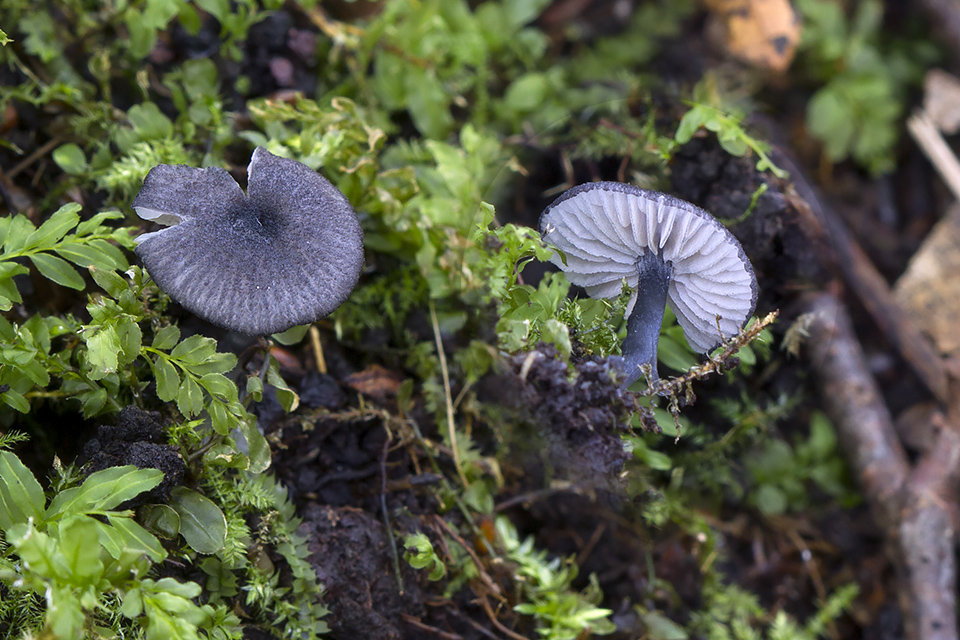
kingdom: Fungi
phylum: Basidiomycota
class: Agaricomycetes
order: Agaricales
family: Entolomataceae
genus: Entoloma
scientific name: Entoloma
